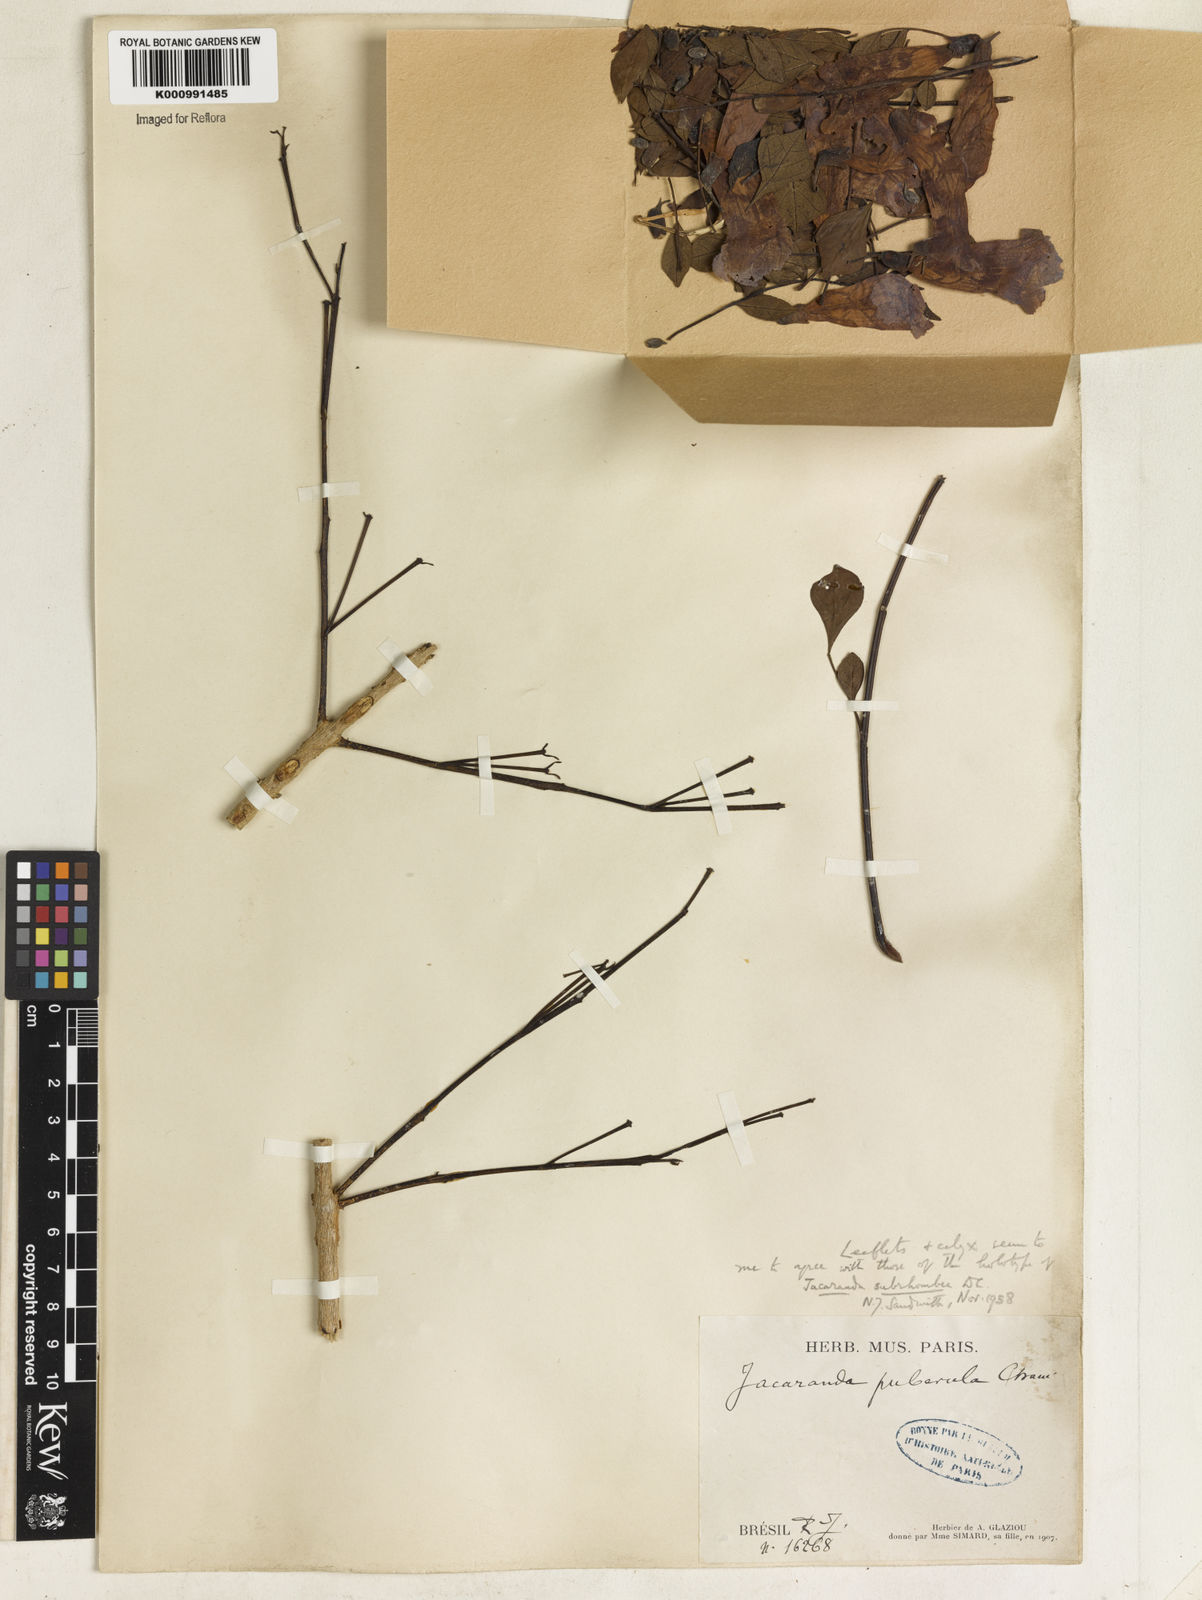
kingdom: Plantae
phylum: Tracheophyta
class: Magnoliopsida
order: Lamiales
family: Bignoniaceae
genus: Jacaranda
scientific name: Jacaranda puberula
